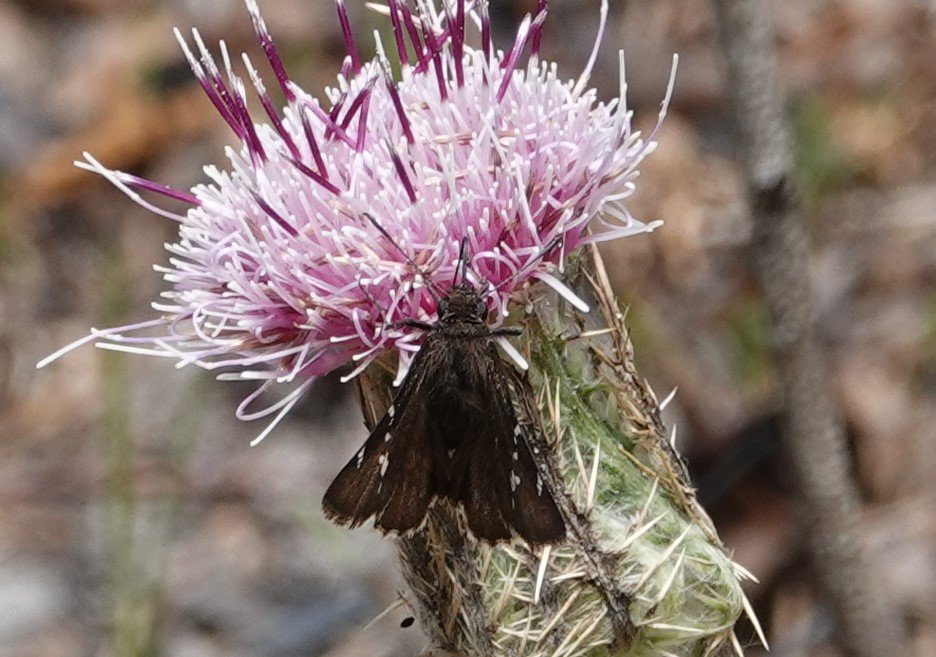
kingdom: Animalia
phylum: Arthropoda
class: Insecta
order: Lepidoptera
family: Hesperiidae
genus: Autochton
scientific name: Autochton
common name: Southern Cloudywing
